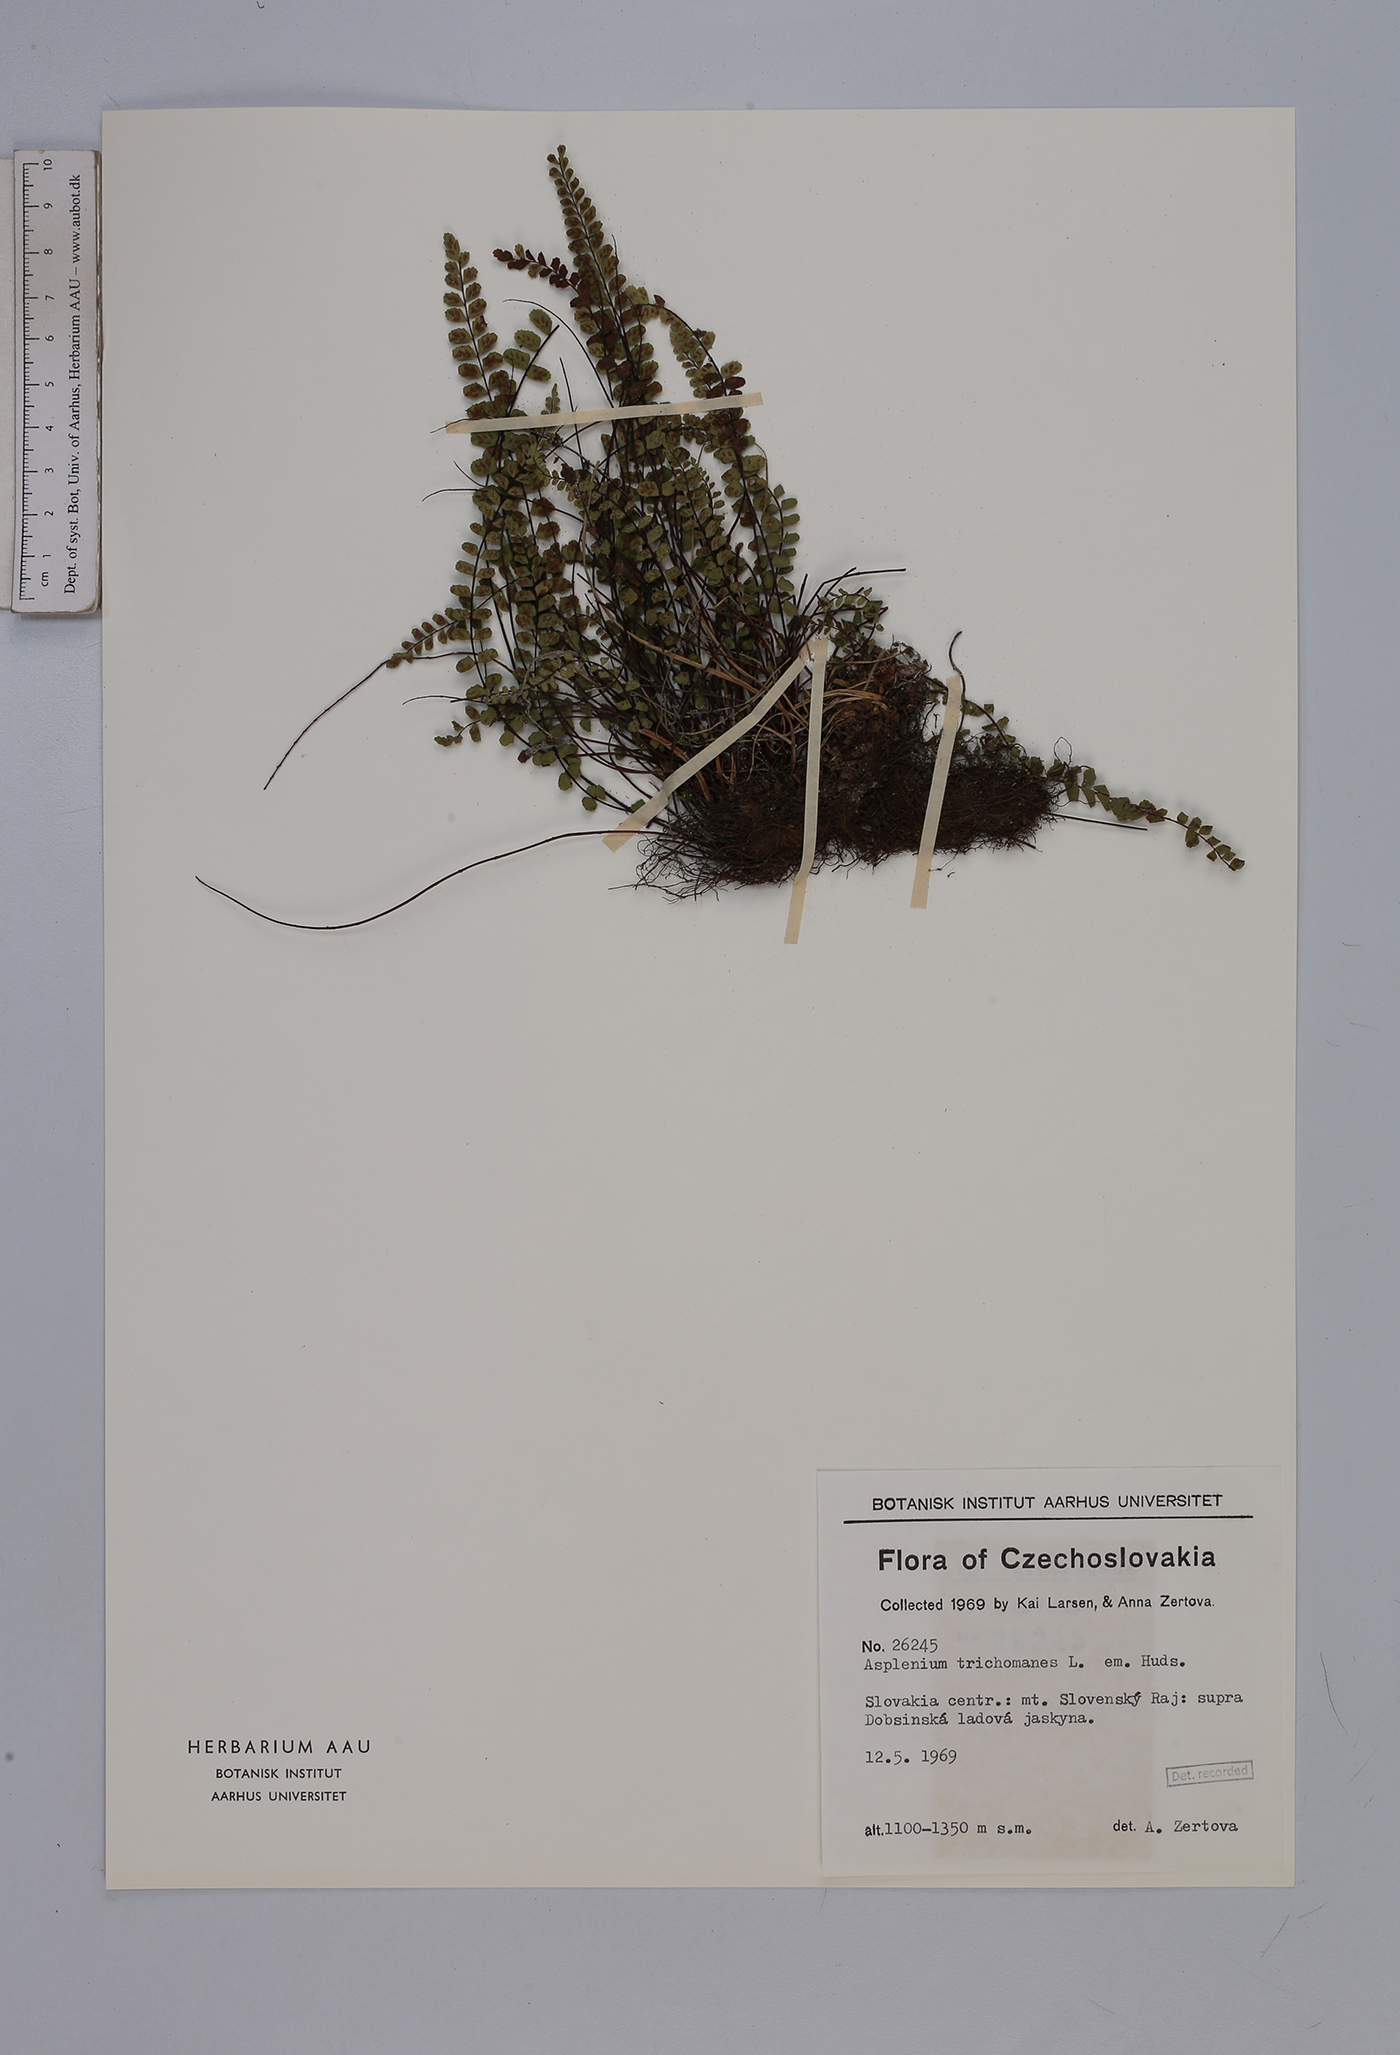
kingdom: Plantae
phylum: Tracheophyta
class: Polypodiopsida
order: Polypodiales
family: Aspleniaceae
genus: Asplenium
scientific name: Asplenium trichomanes
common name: Maidenhair spleenwort
